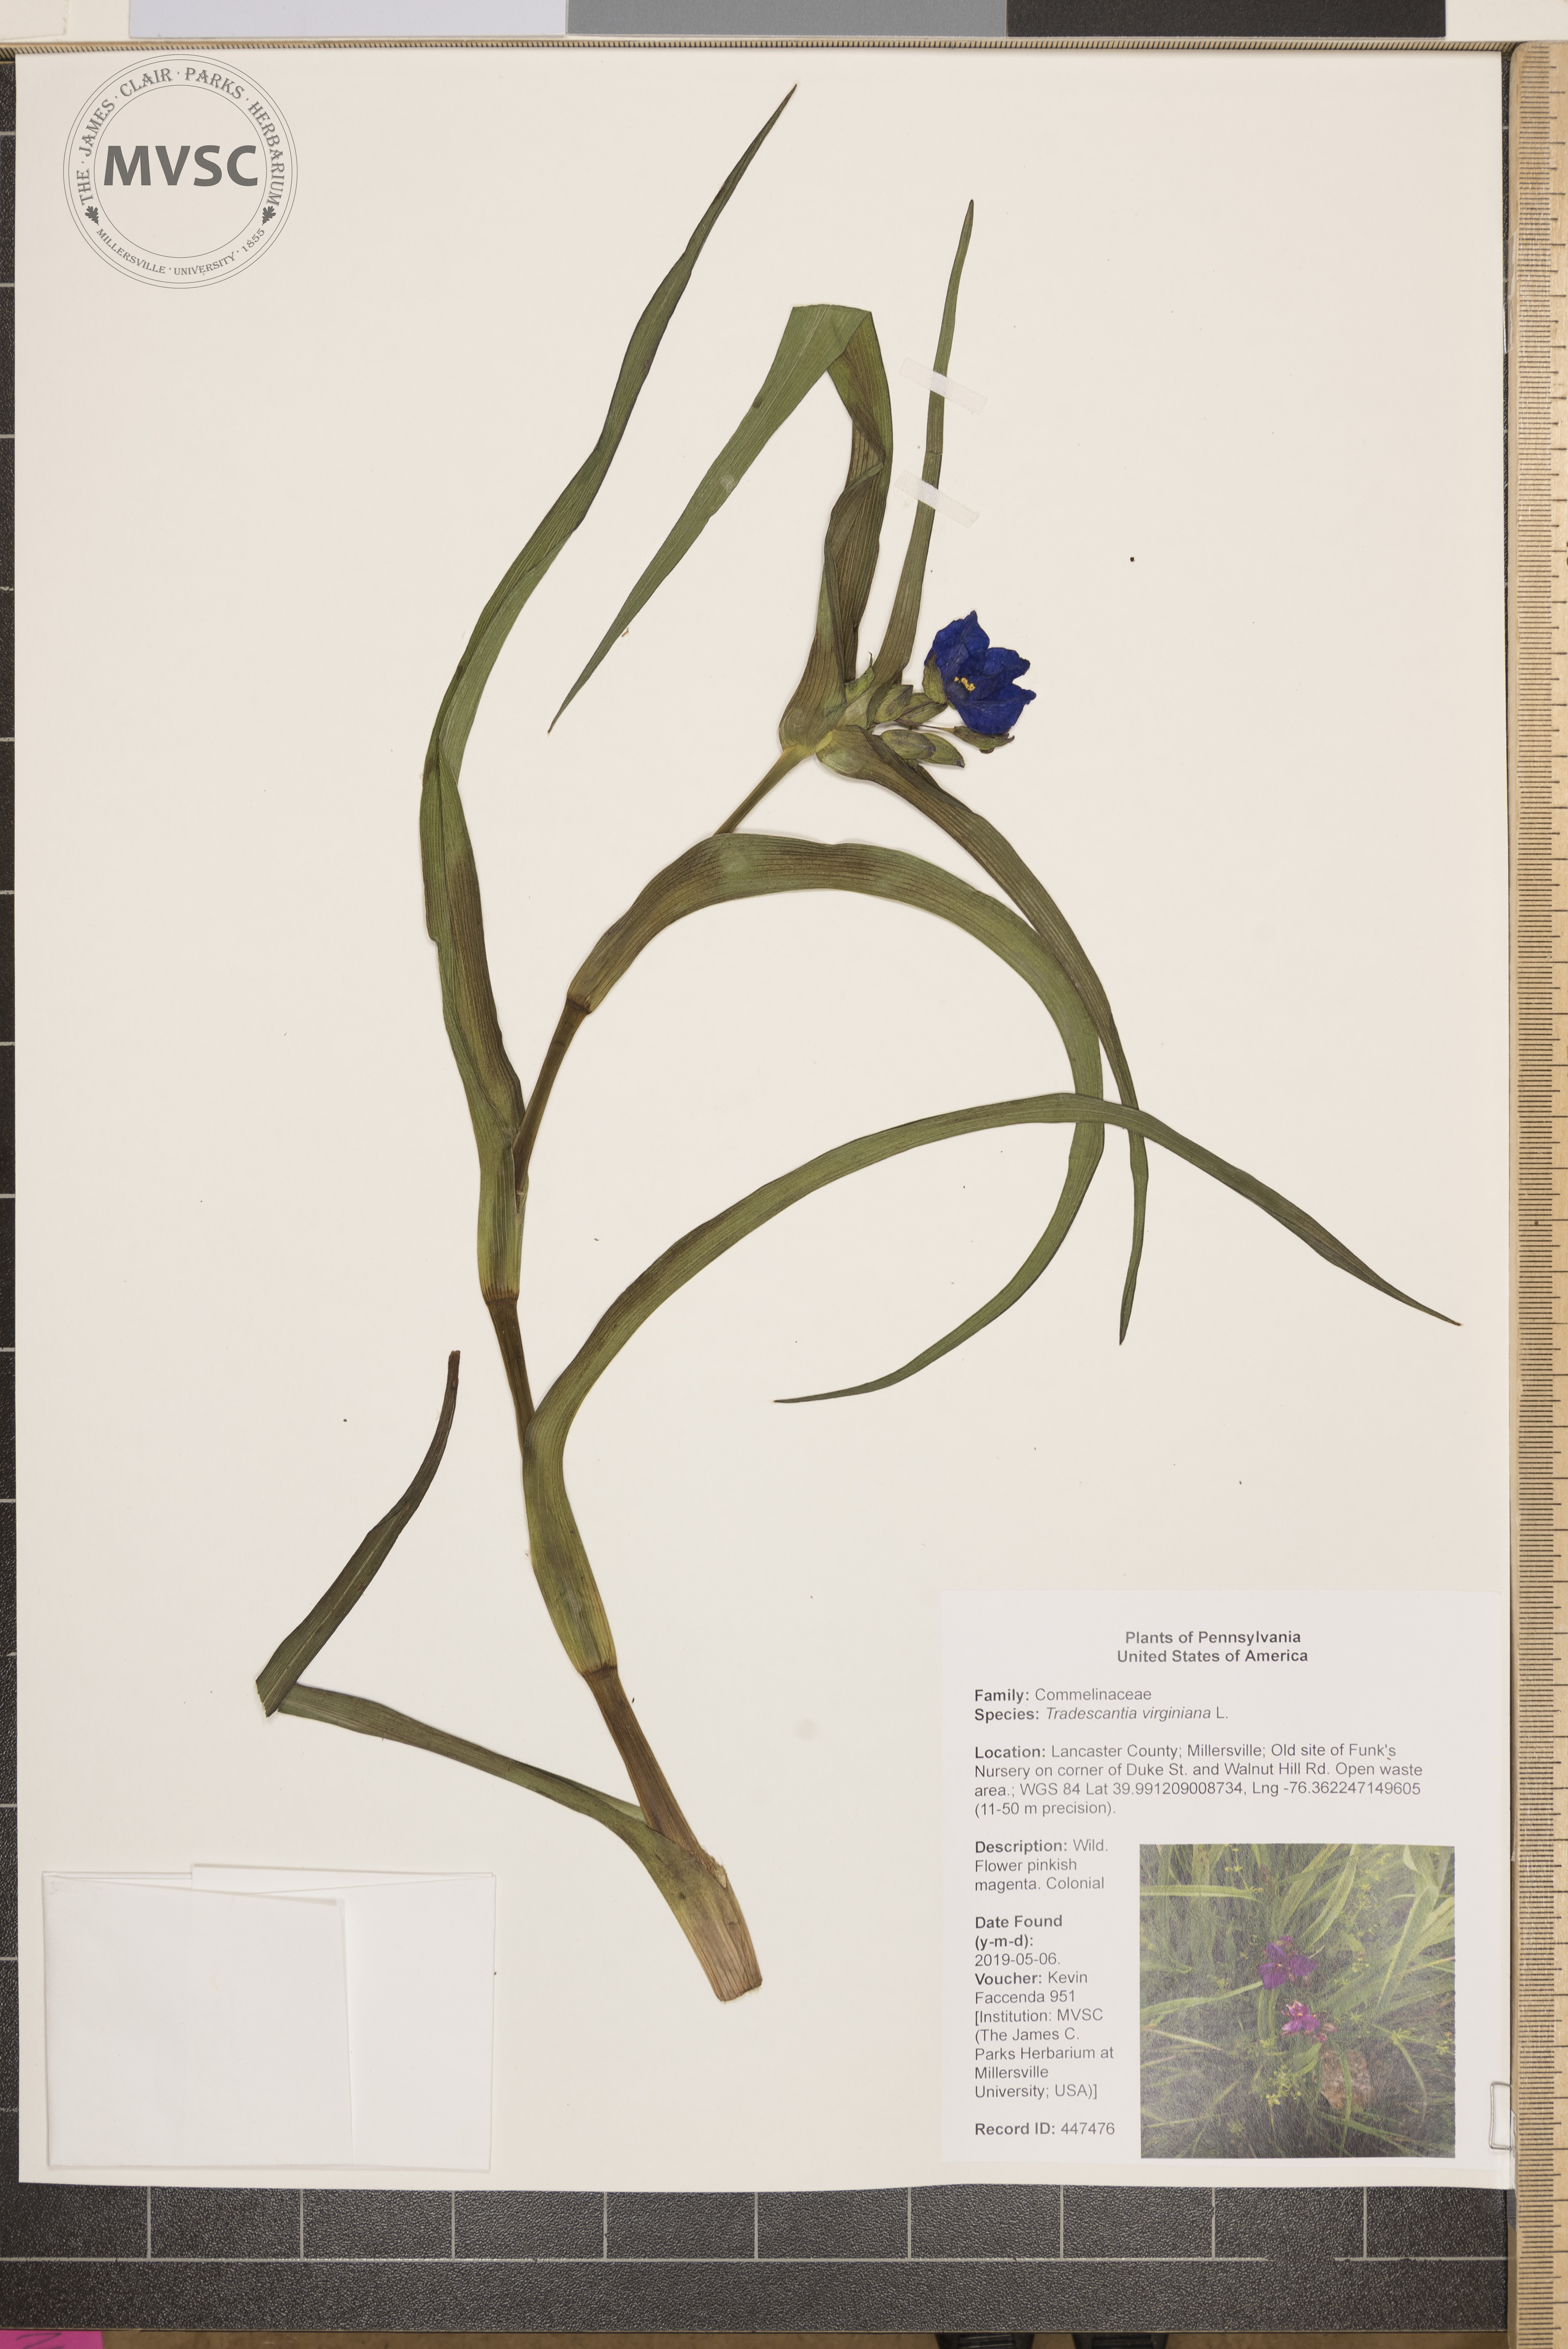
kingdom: Plantae
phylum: Tracheophyta
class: Liliopsida
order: Commelinales
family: Commelinaceae
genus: Tradescantia
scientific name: Tradescantia virginiana
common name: Spiderwort
